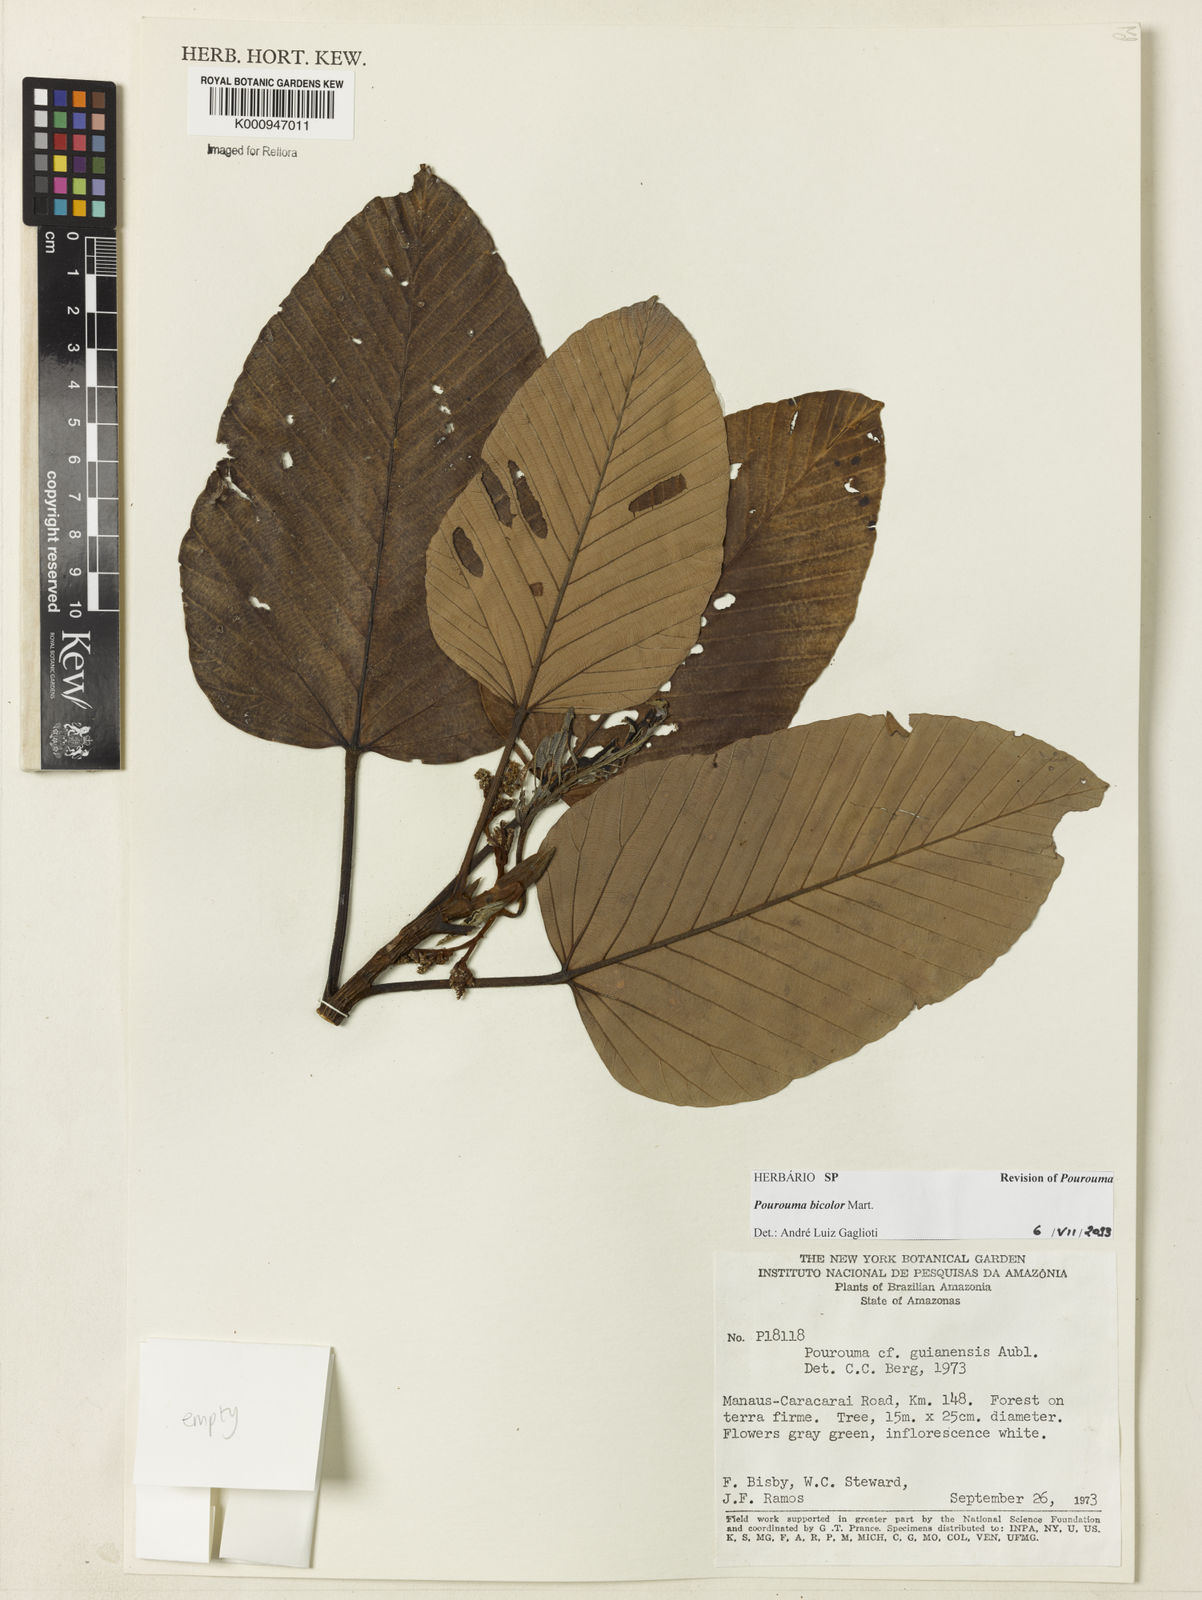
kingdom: Plantae
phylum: Tracheophyta
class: Magnoliopsida
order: Rosales
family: Urticaceae
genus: Pourouma
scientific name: Pourouma bicolor
